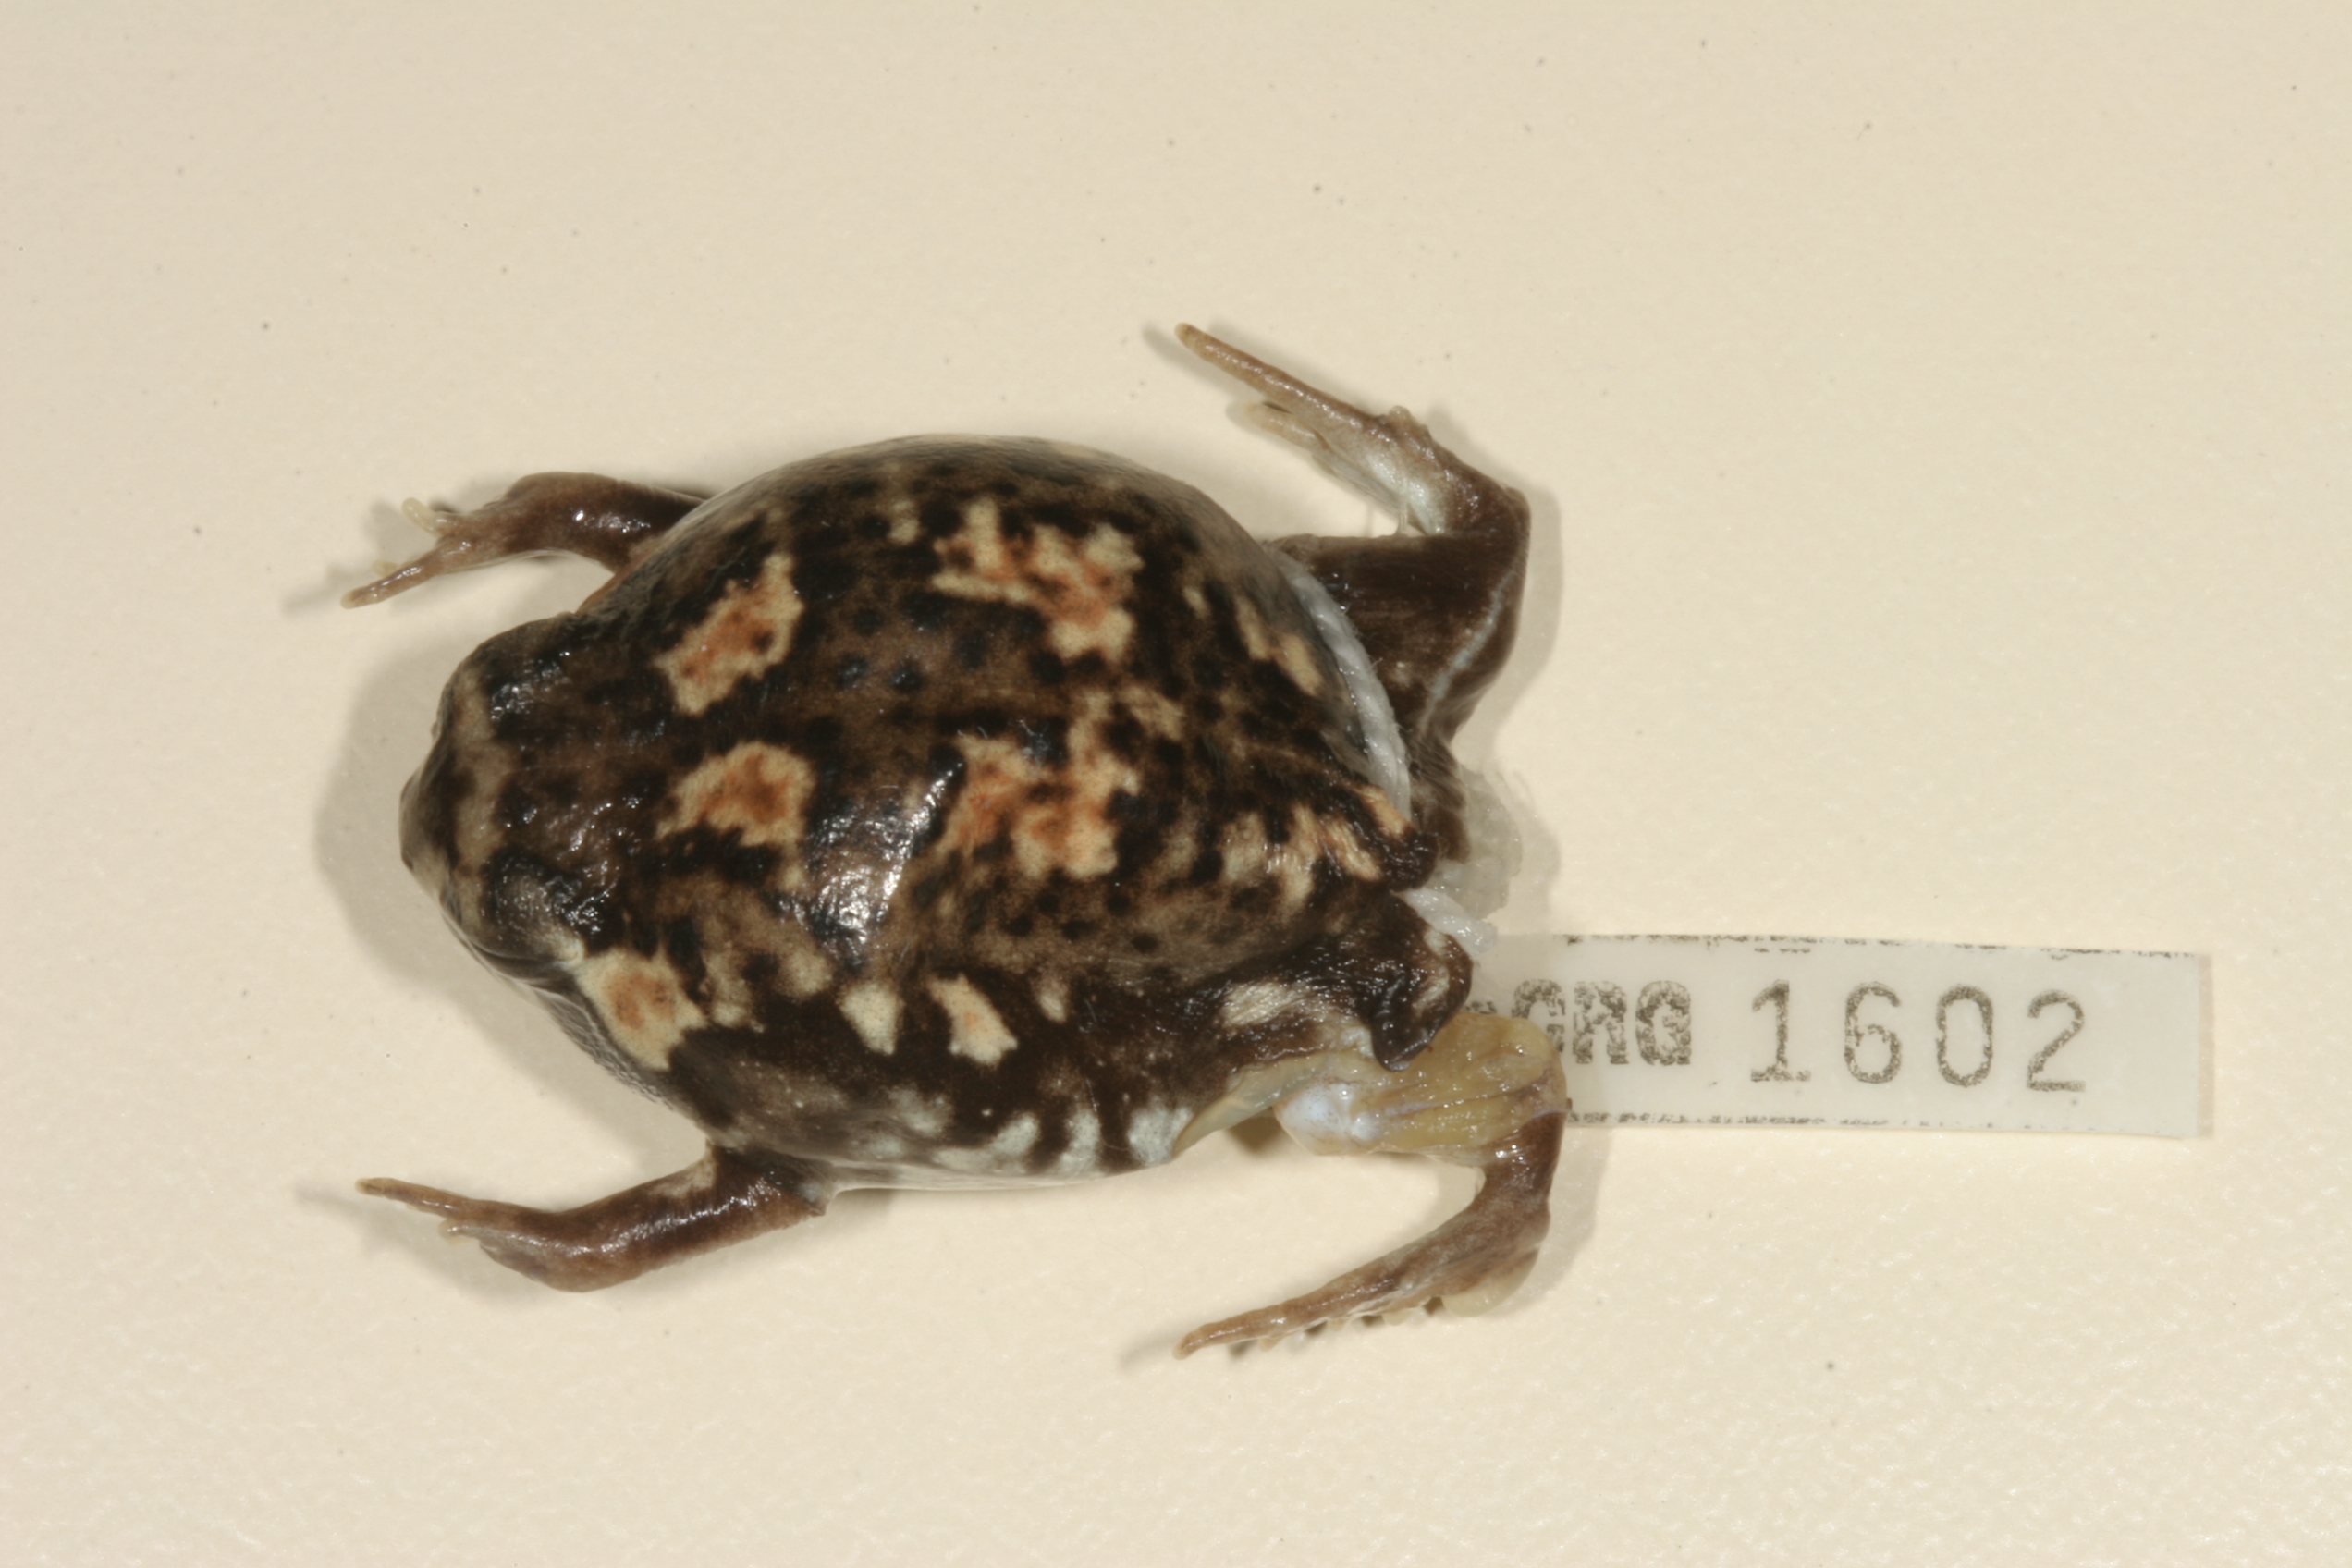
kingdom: Animalia
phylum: Chordata
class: Amphibia
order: Anura
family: Brevicipitidae
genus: Breviceps
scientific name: Breviceps adspersus
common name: Common rain frog
